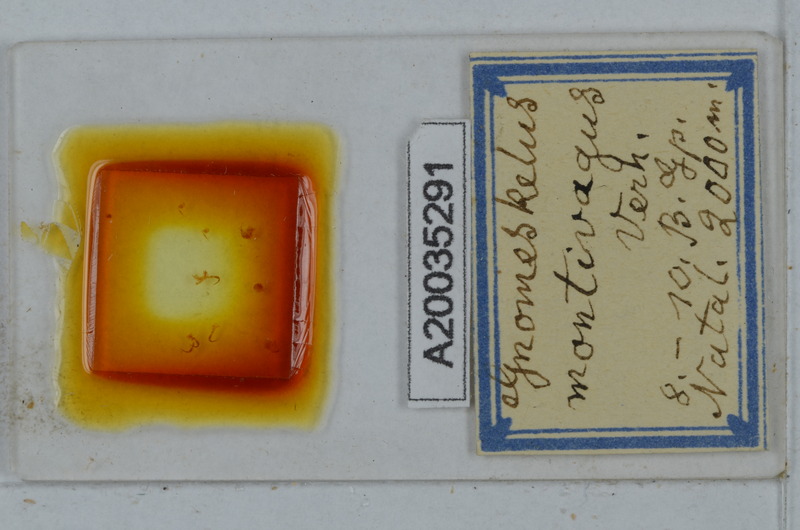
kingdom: Animalia
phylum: Arthropoda
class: Diplopoda
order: Polydesmida
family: Dalodesmidae
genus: Gnomeskelus
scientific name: Gnomeskelus montivagus
